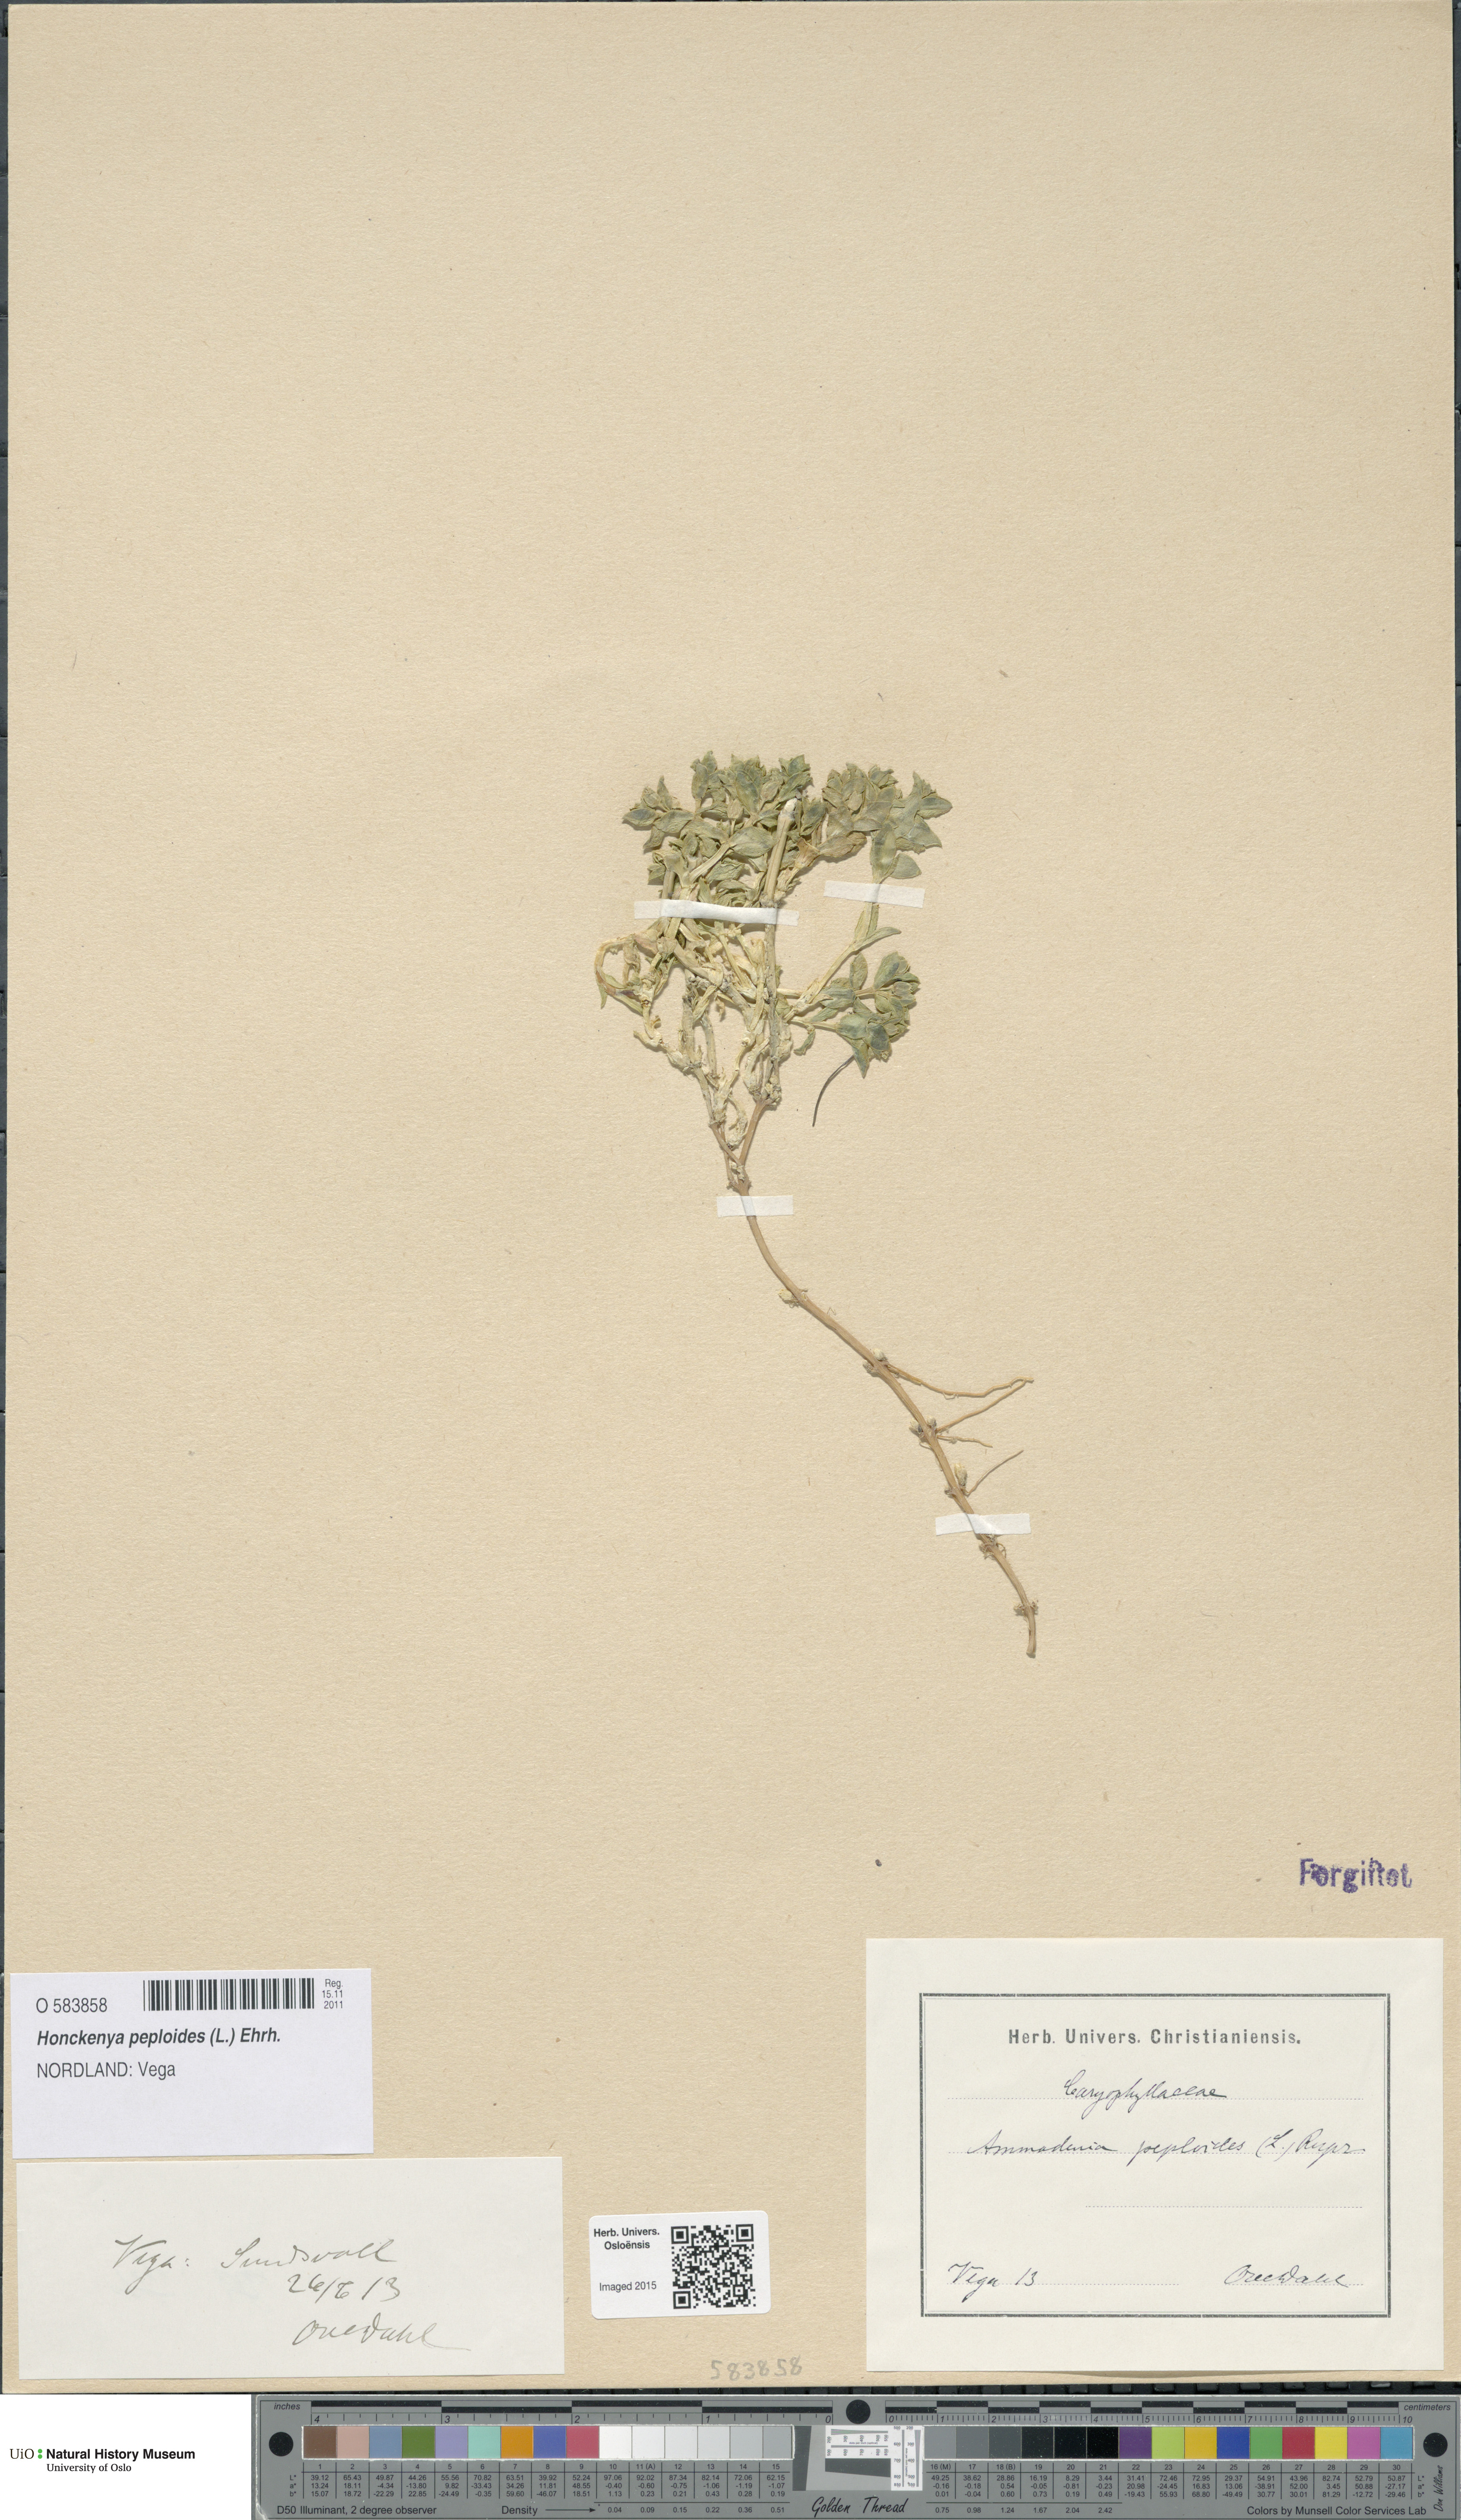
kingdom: Plantae
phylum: Tracheophyta
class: Magnoliopsida
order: Caryophyllales
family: Caryophyllaceae
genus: Honckenya
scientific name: Honckenya peploides
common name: Sea sandwort
